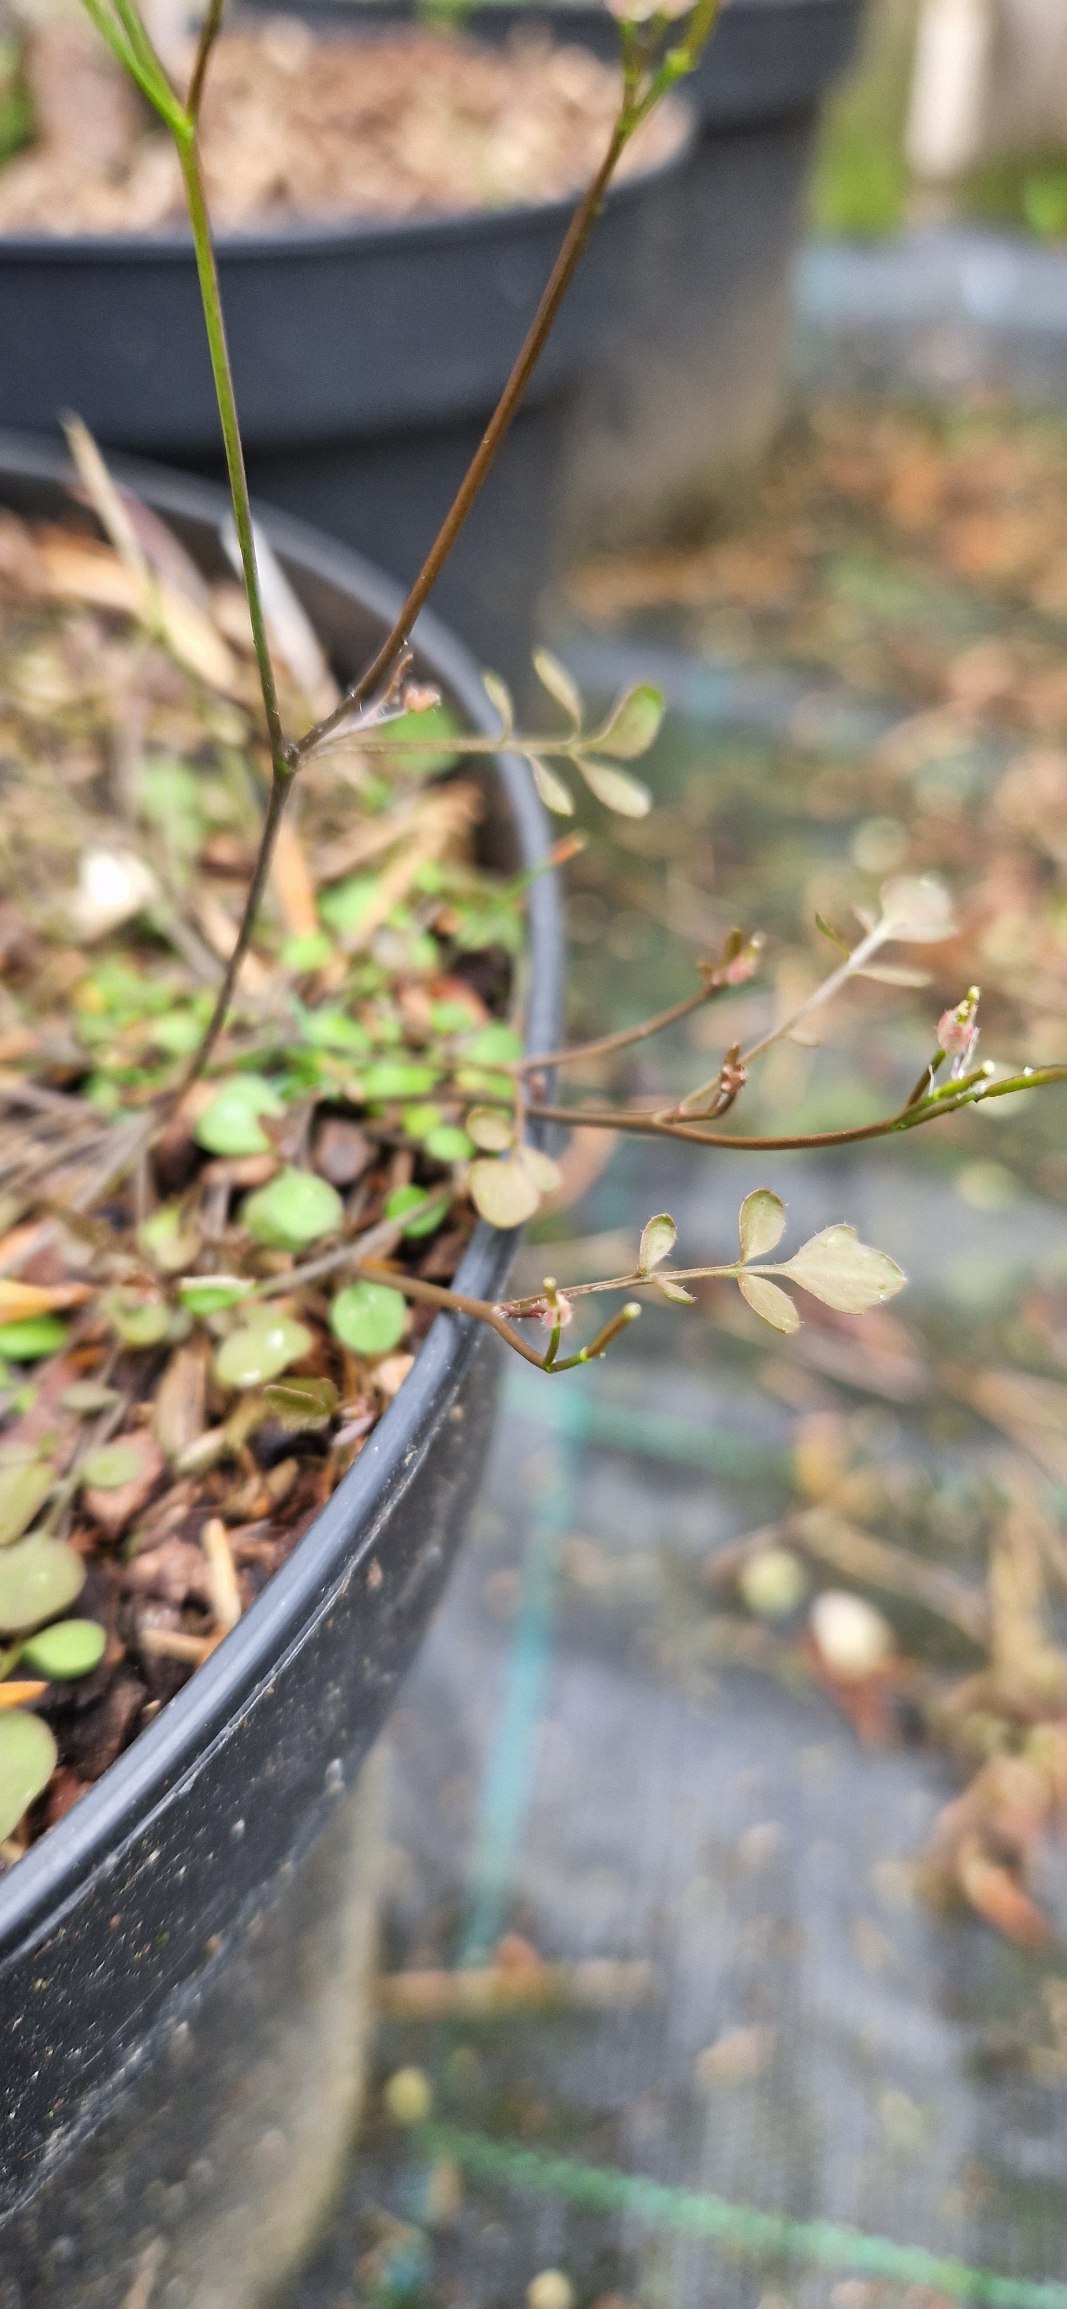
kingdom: Plantae
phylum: Tracheophyta
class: Magnoliopsida
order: Brassicales
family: Brassicaceae
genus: Cardamine
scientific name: Cardamine corymbosa
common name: Liggende springklap
